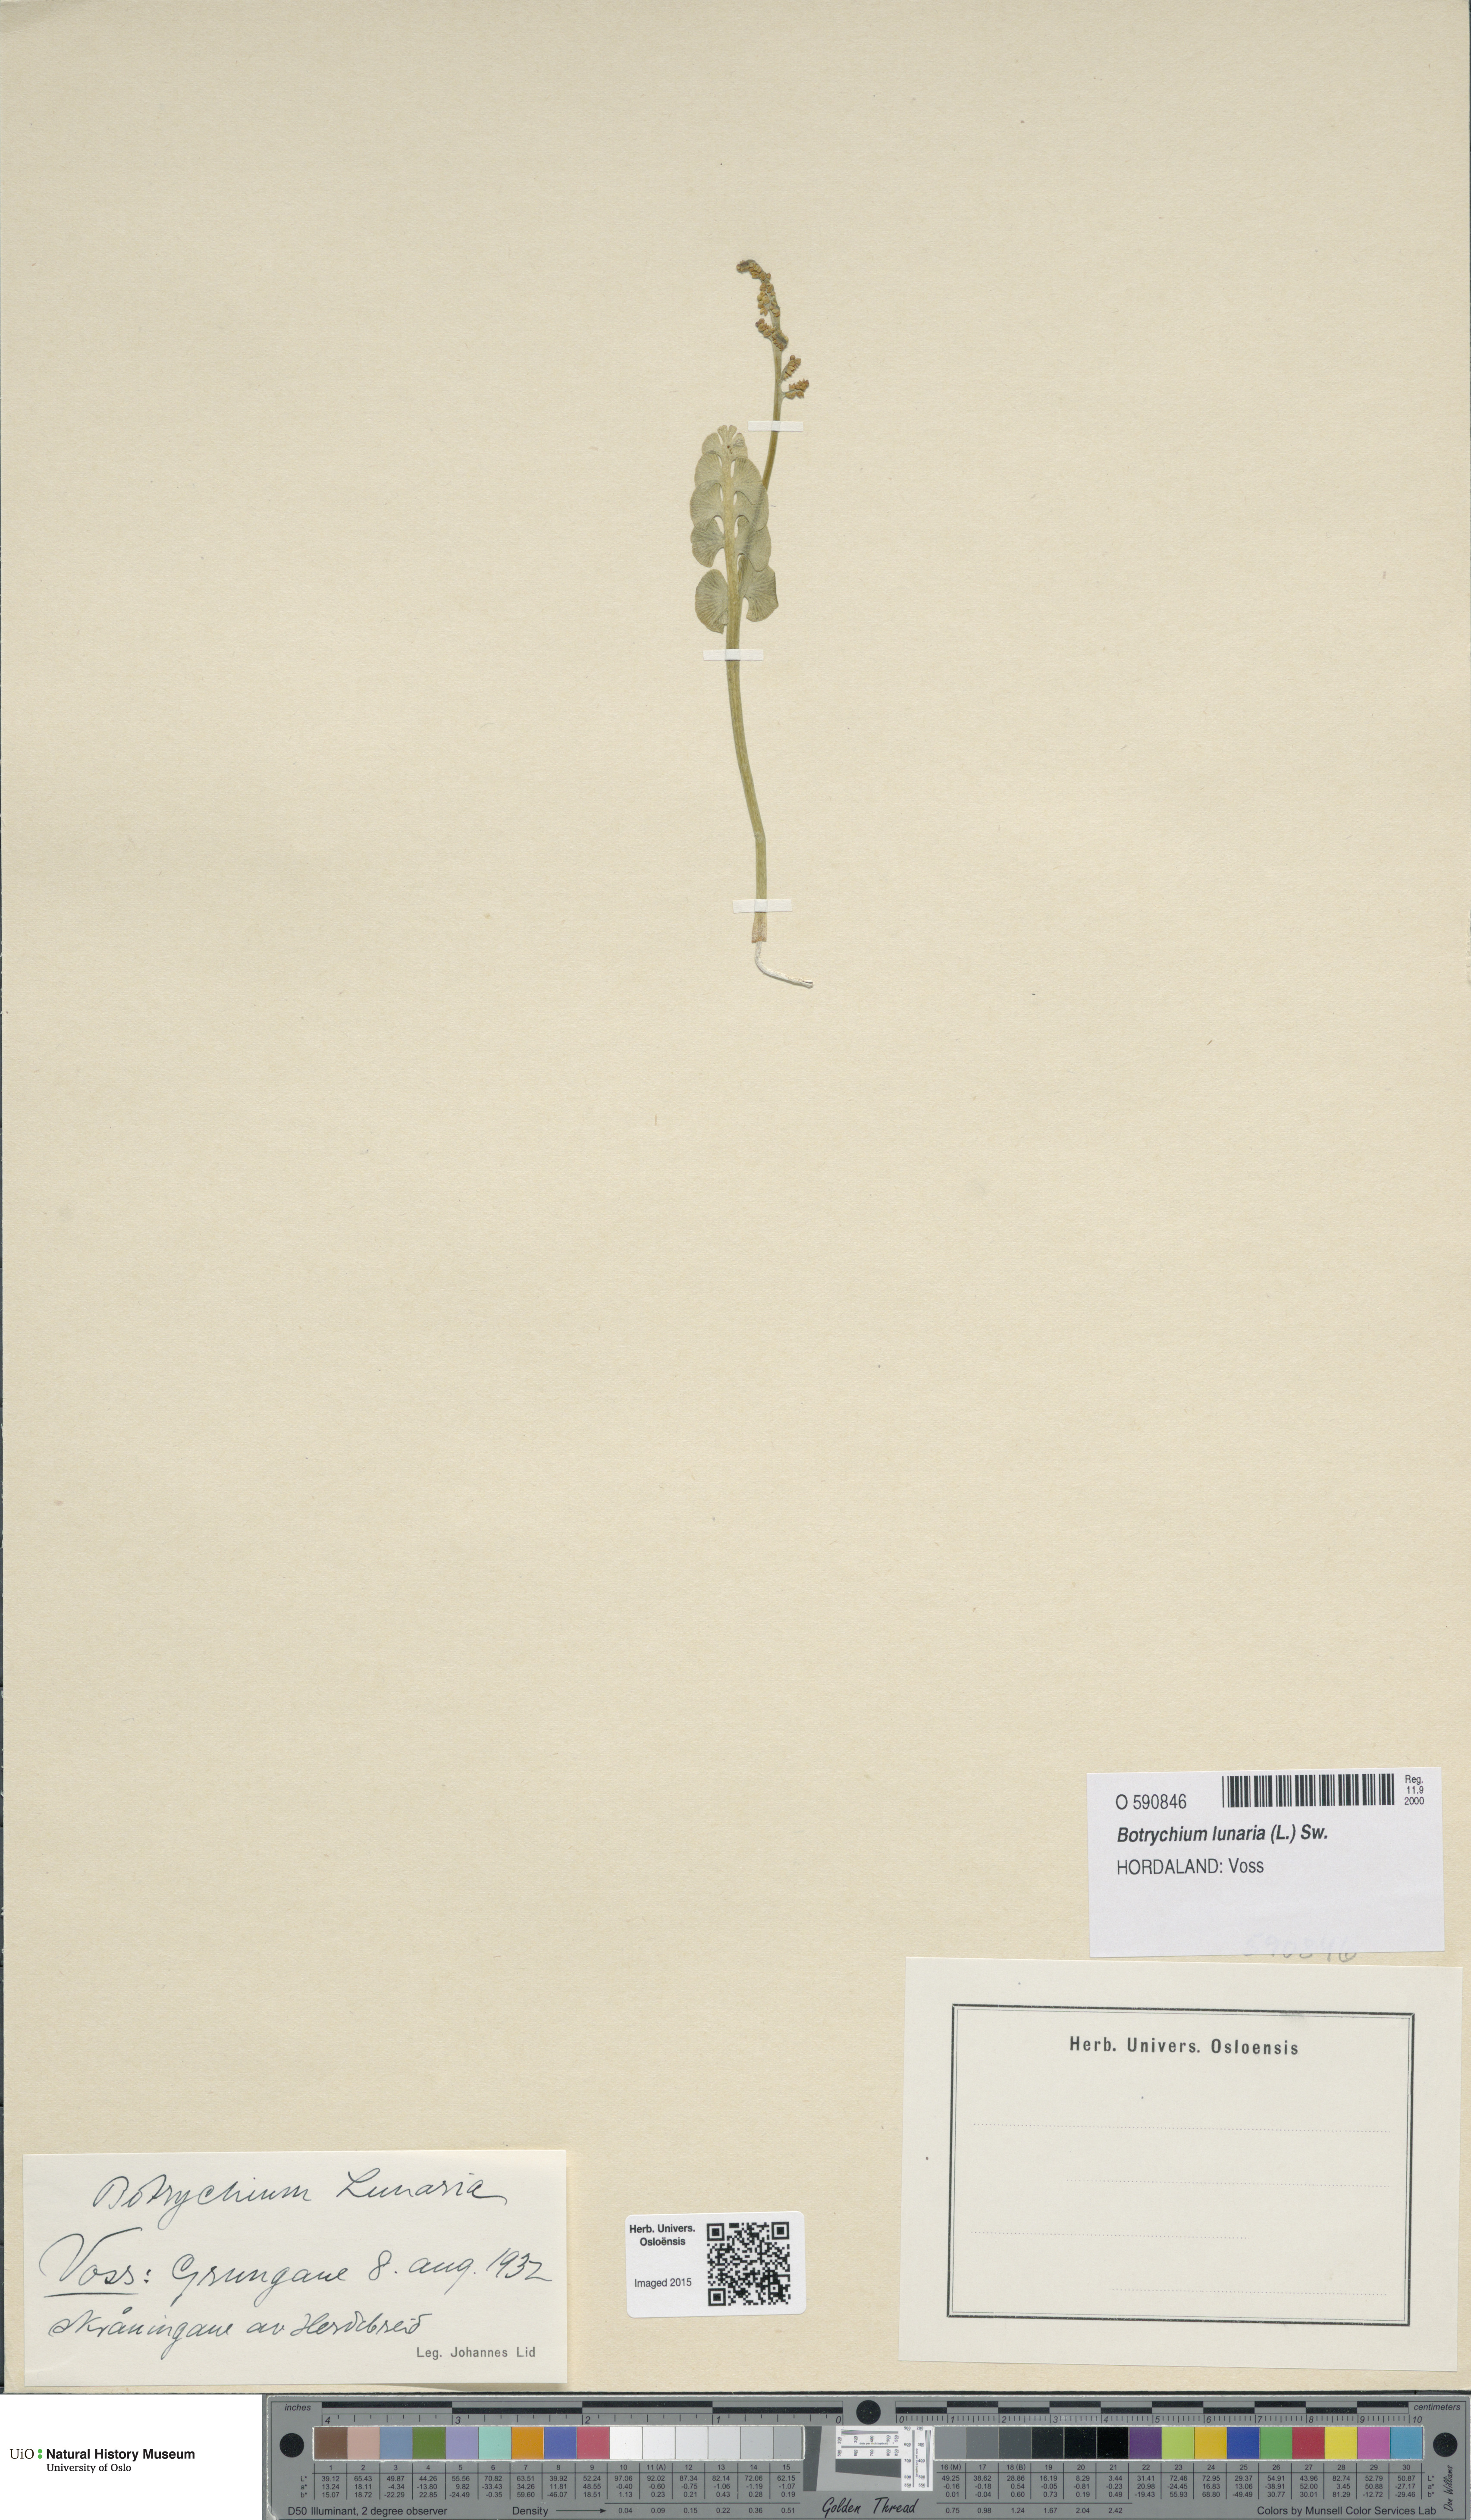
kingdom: Plantae
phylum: Tracheophyta
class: Polypodiopsida
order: Ophioglossales
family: Ophioglossaceae
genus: Botrychium
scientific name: Botrychium lunaria
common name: Moonwort
